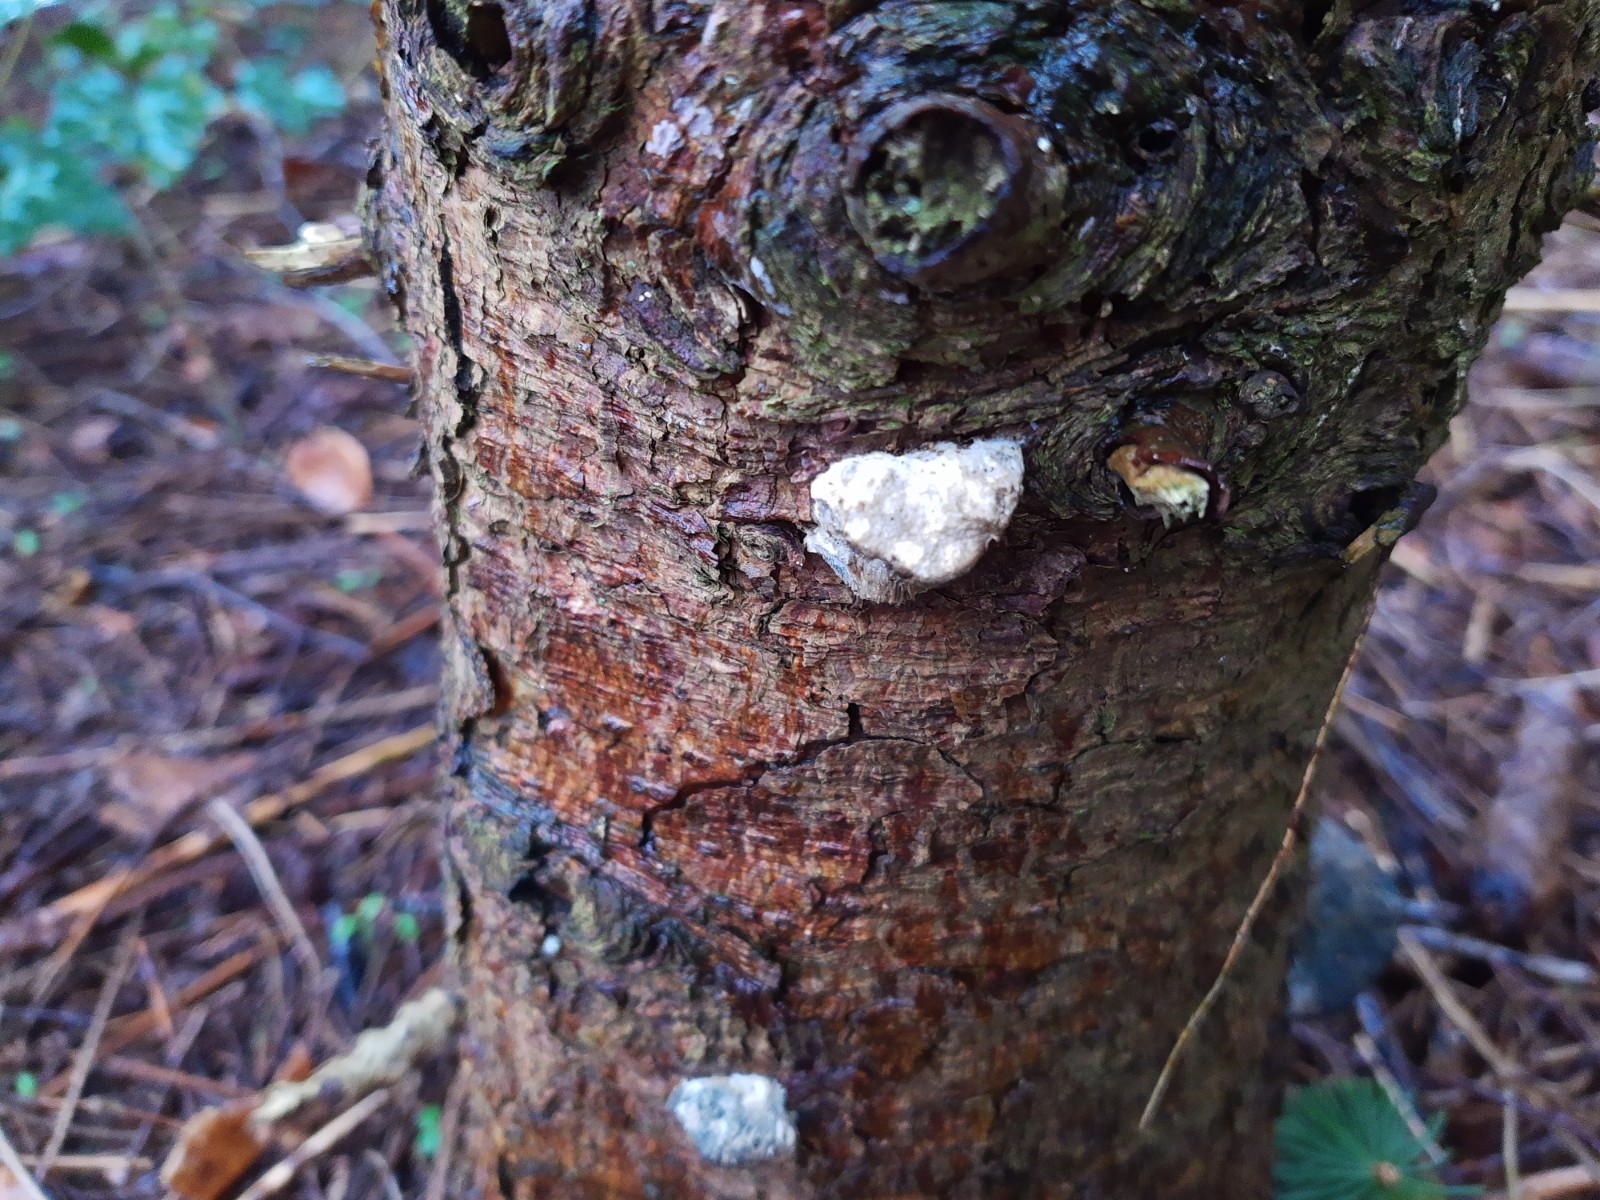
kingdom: Fungi
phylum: Basidiomycota
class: Agaricomycetes
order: Polyporales
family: Polyporaceae
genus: Cyanosporus
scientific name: Cyanosporus caesius
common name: blålig kødporesvamp
